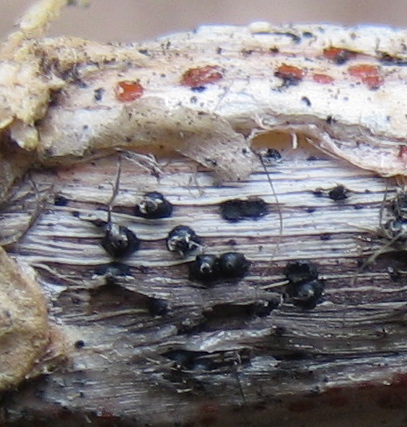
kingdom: Fungi
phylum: Ascomycota
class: Dothideomycetes
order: Pleosporales
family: Leptosphaeriaceae
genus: Leptosphaeria
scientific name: Leptosphaeria acuta
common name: spids kulkegle
